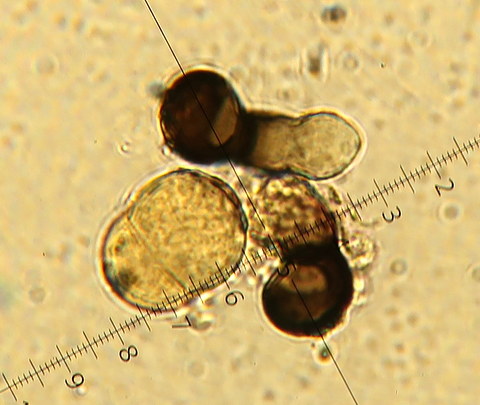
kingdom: Fungi
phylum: Ascomycota
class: Sordariomycetes
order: Magnaporthales
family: Magnaporthaceae
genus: Utrechtiana
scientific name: Utrechtiana arundinacea
